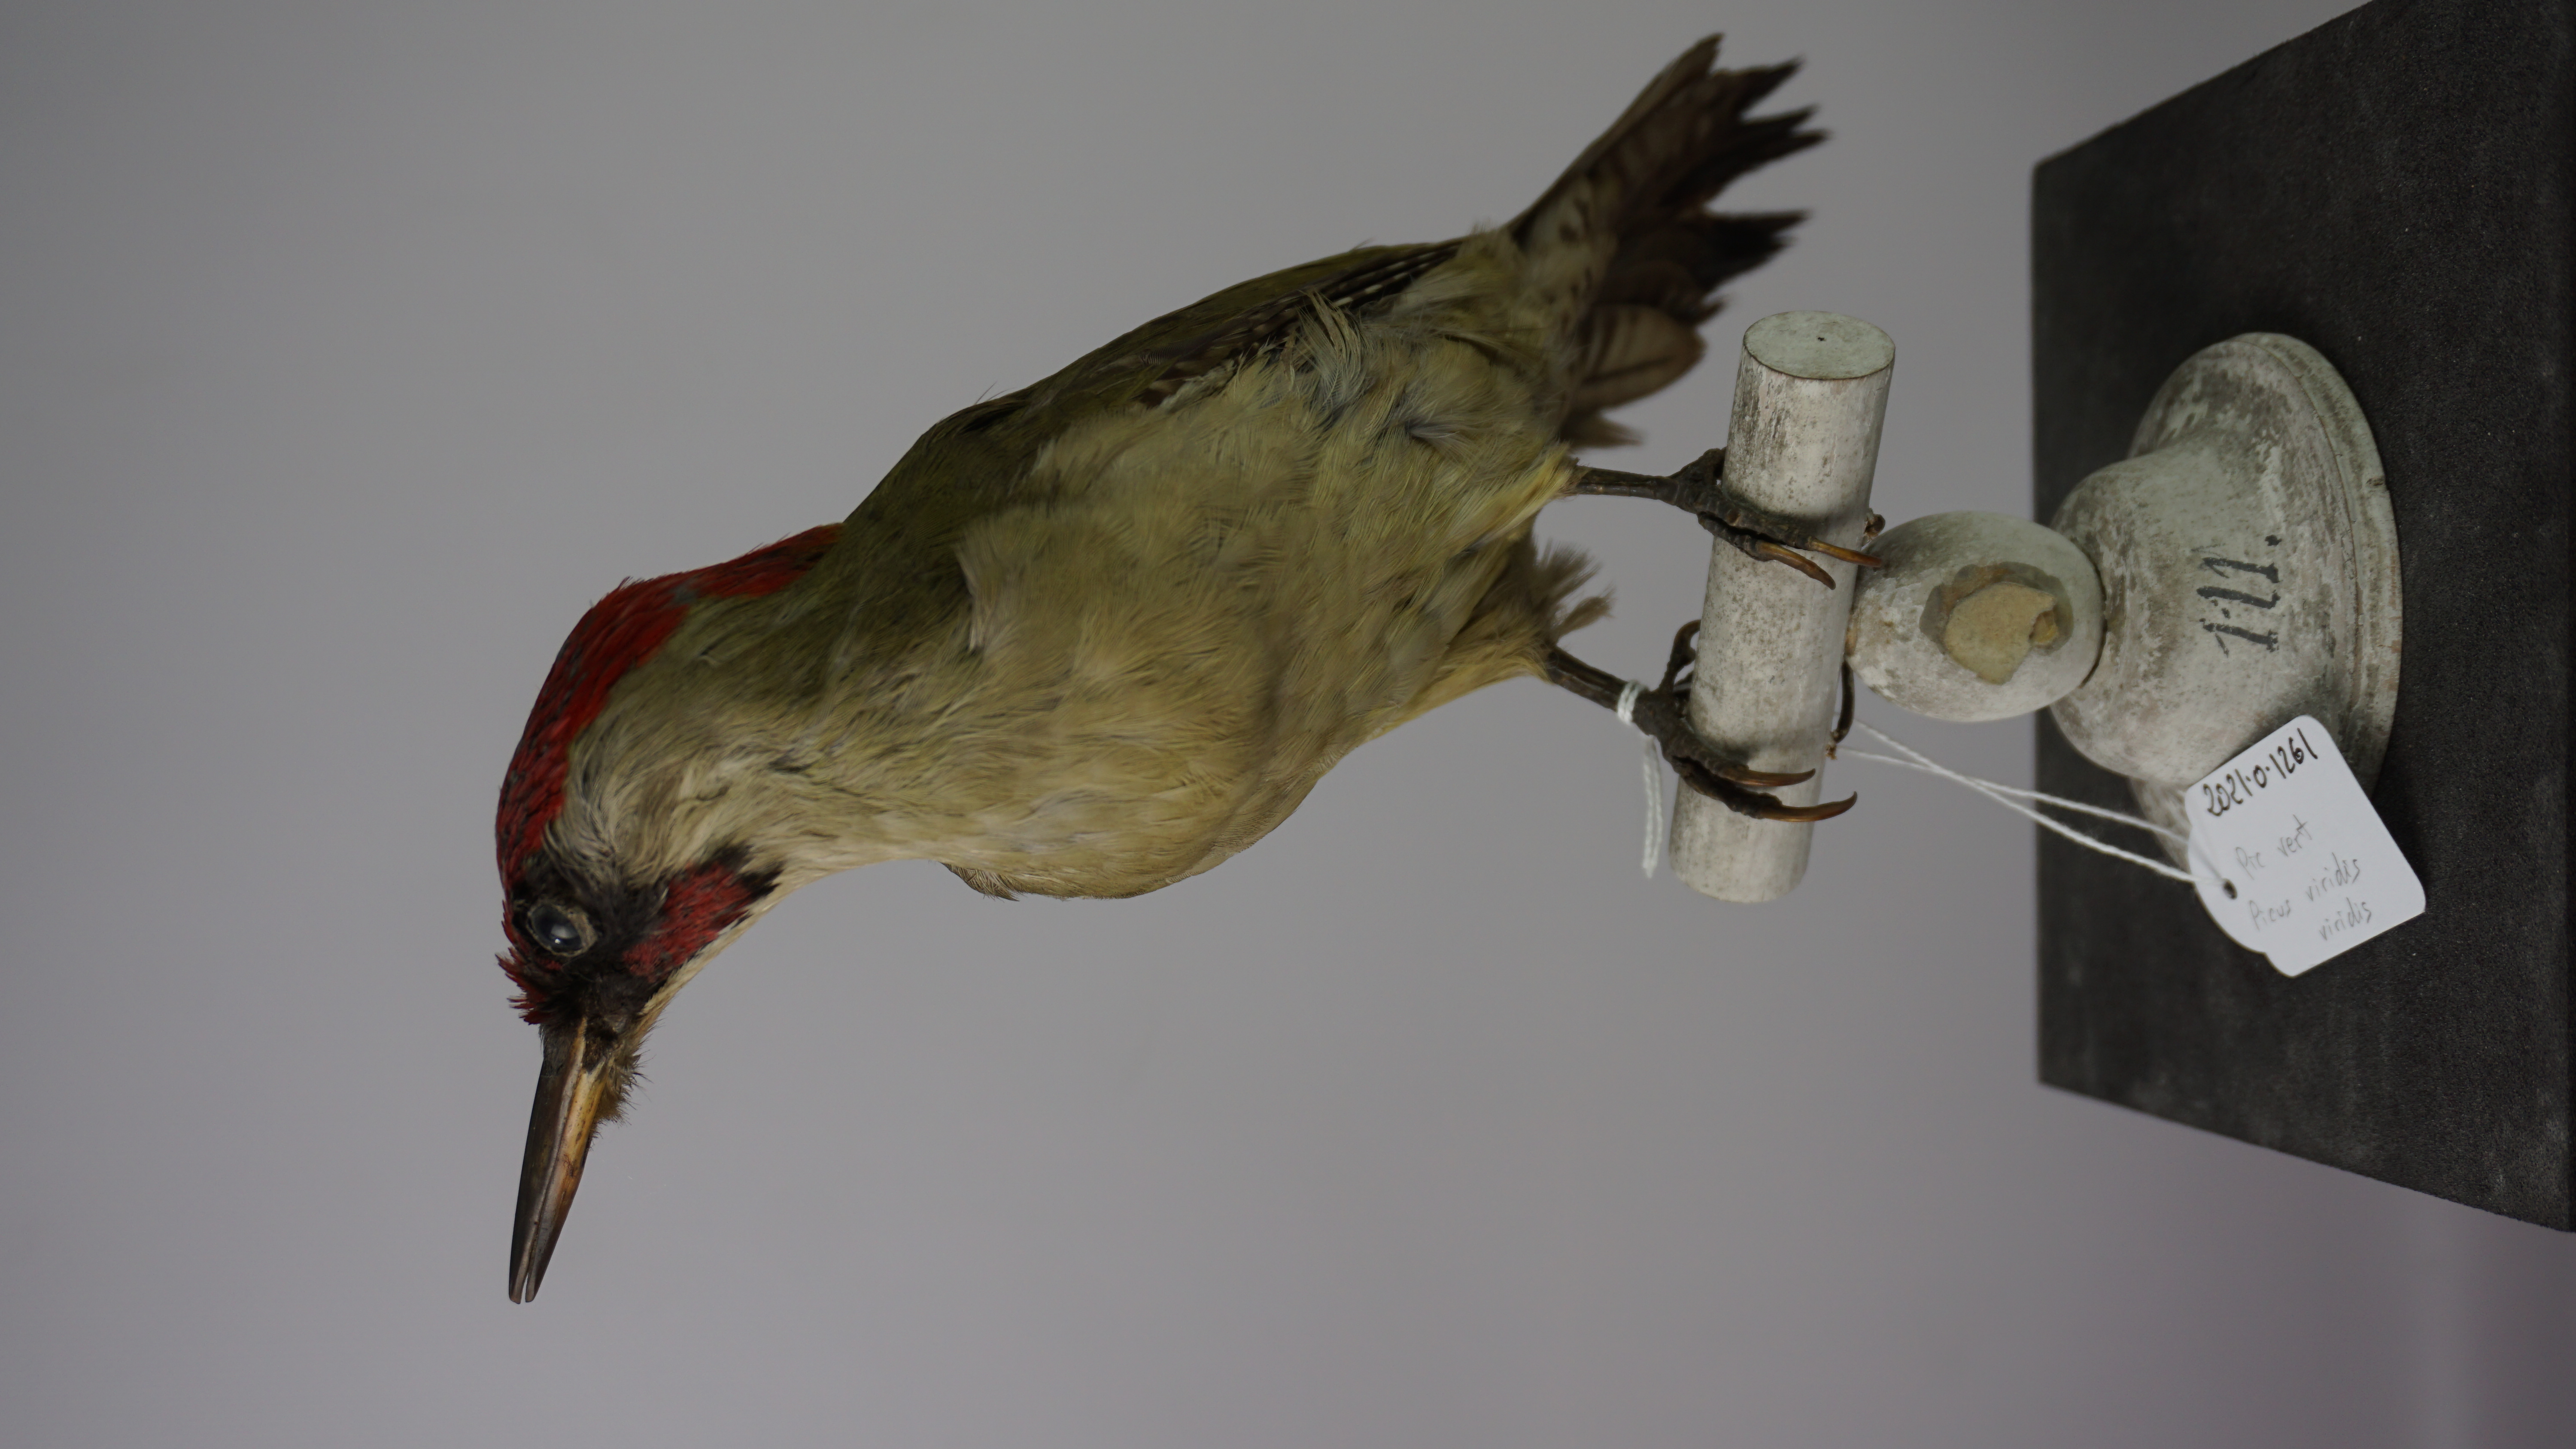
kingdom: Animalia
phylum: Chordata
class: Aves
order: Piciformes
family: Picidae
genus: Picus
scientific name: Picus viridis
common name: European green woodpecker
